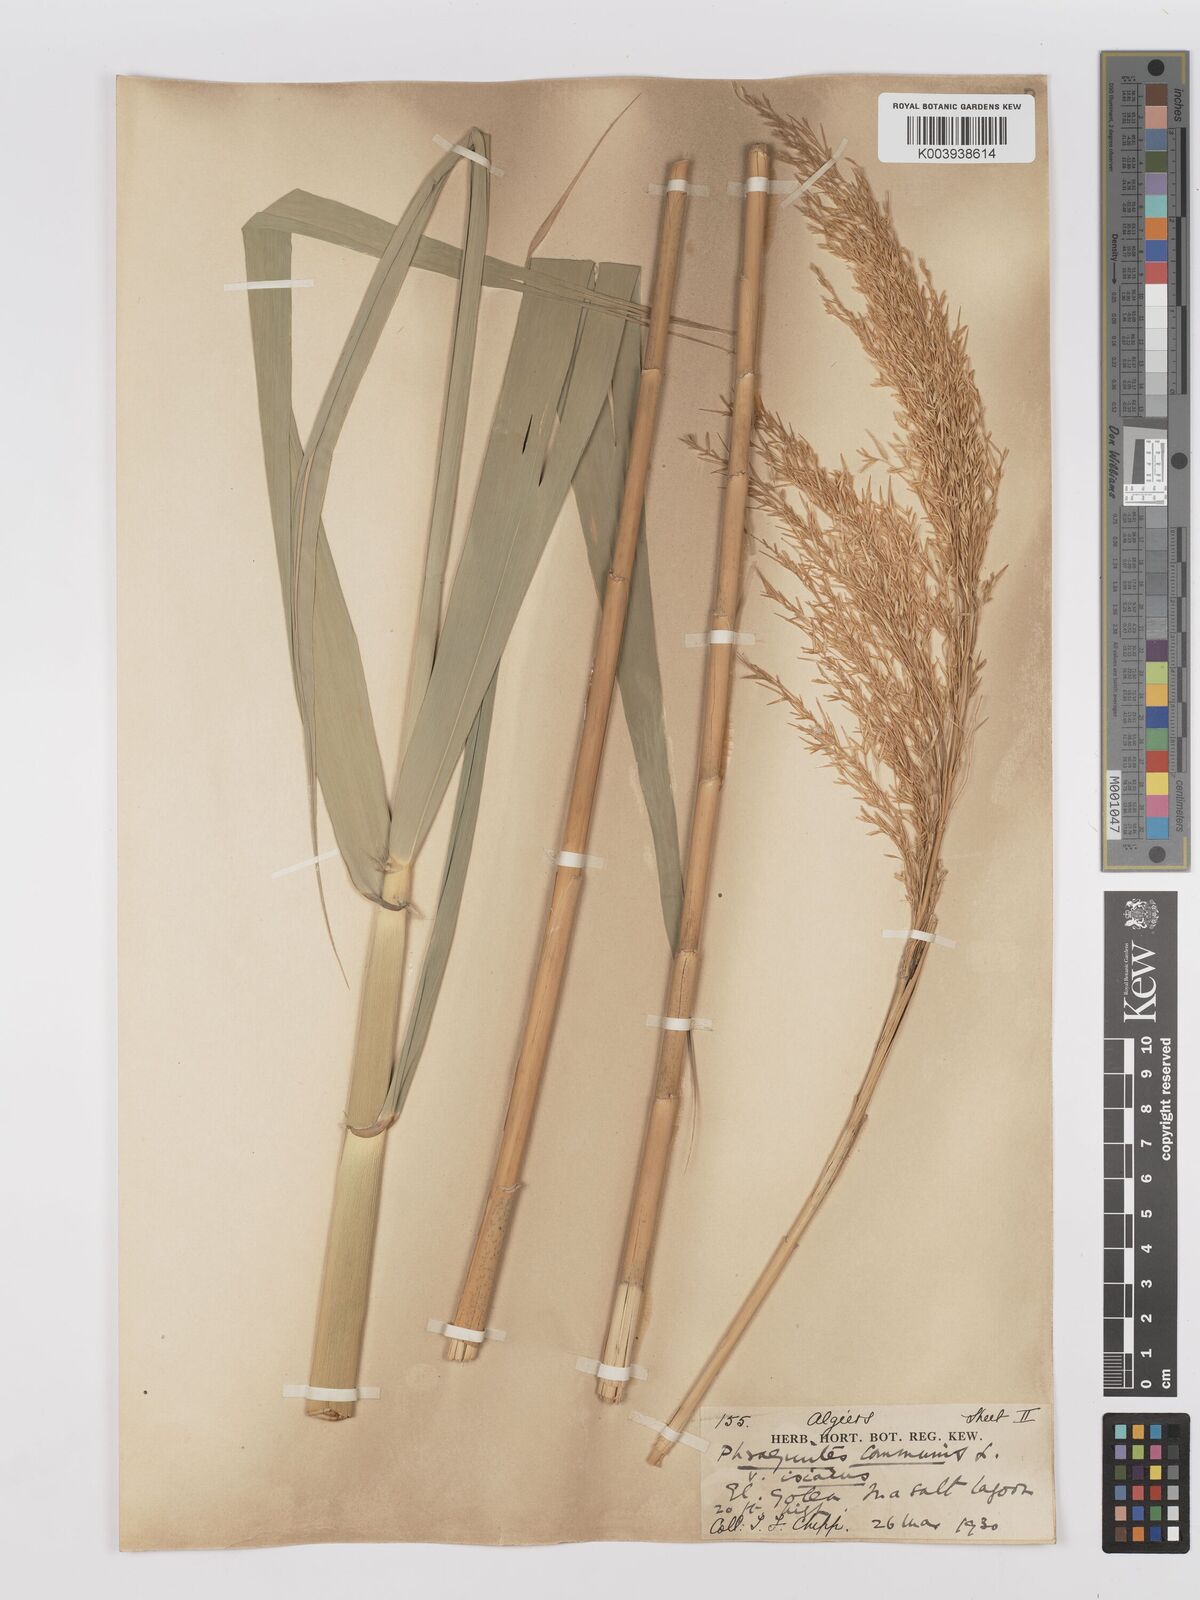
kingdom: Plantae
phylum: Tracheophyta
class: Liliopsida
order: Poales
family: Poaceae
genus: Phragmites
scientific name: Phragmites australis
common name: Common reed
